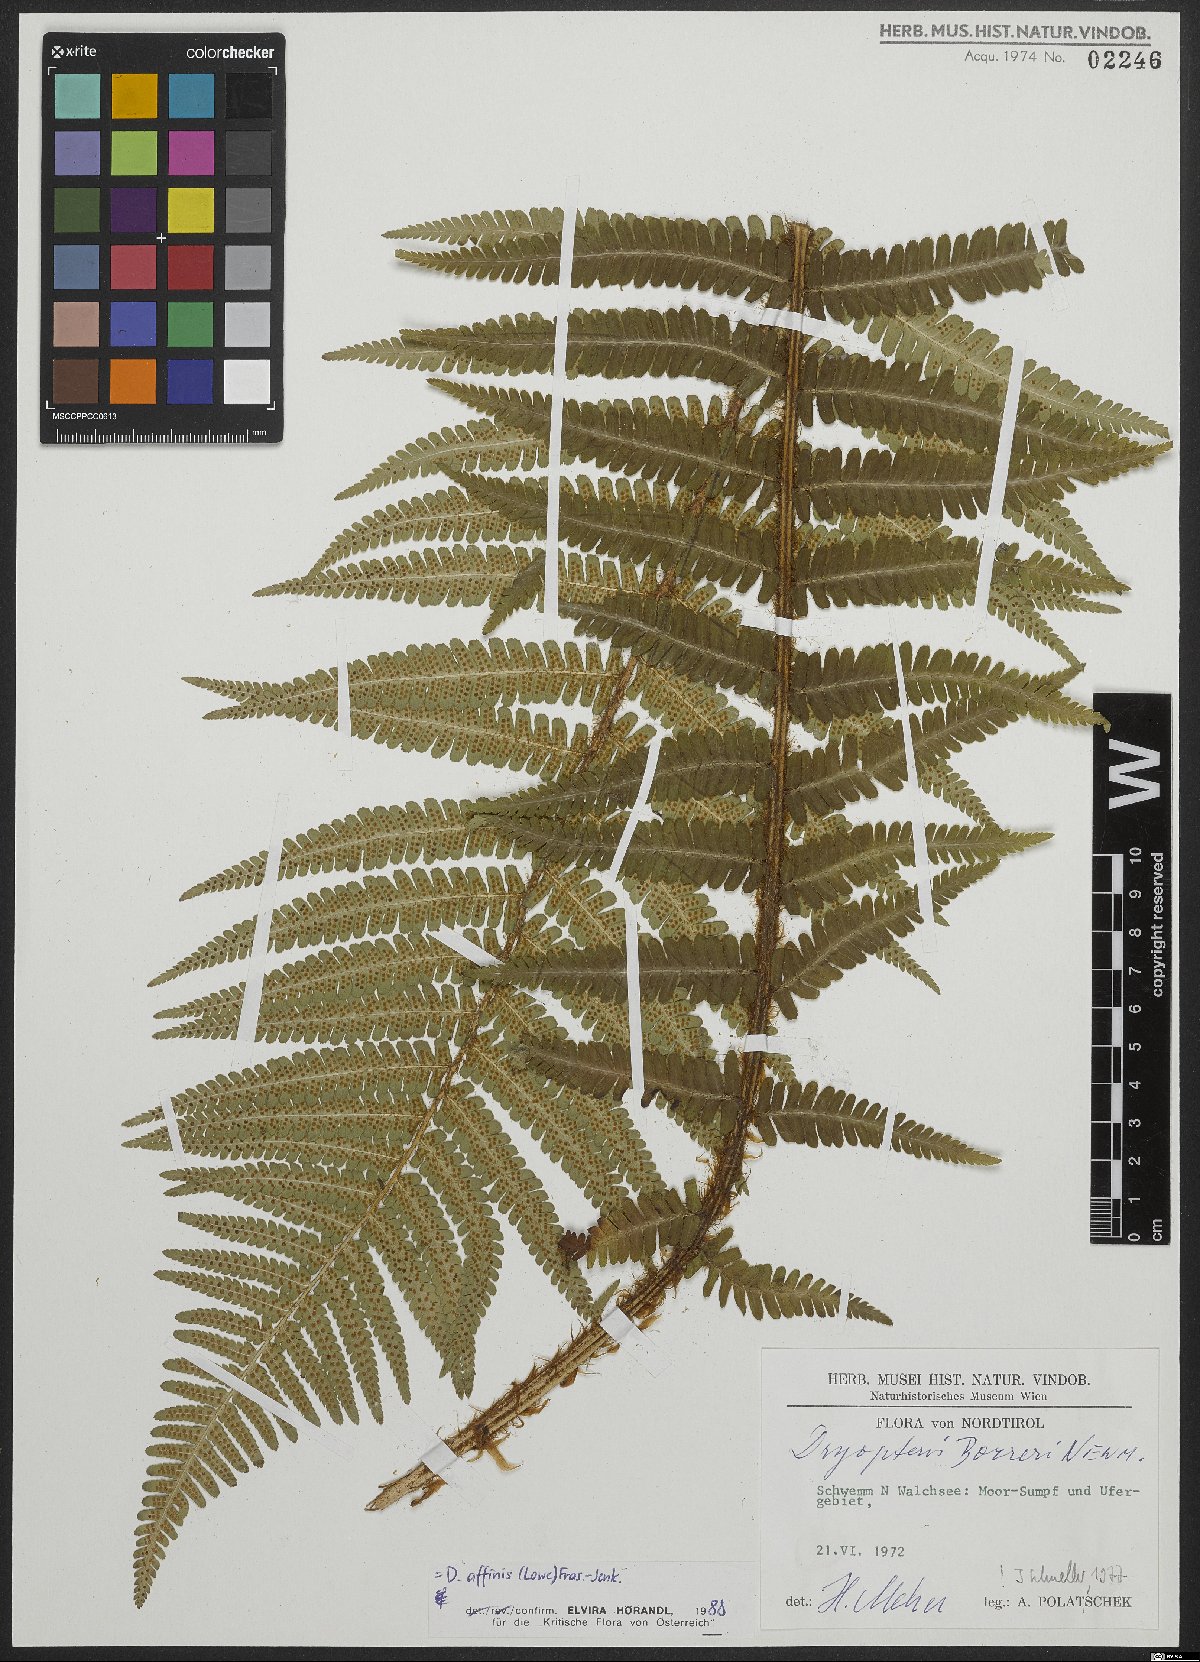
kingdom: Plantae
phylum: Tracheophyta
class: Polypodiopsida
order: Polypodiales
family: Dryopteridaceae
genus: Dryopteris
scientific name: Dryopteris affinis
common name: Scaly male fern
